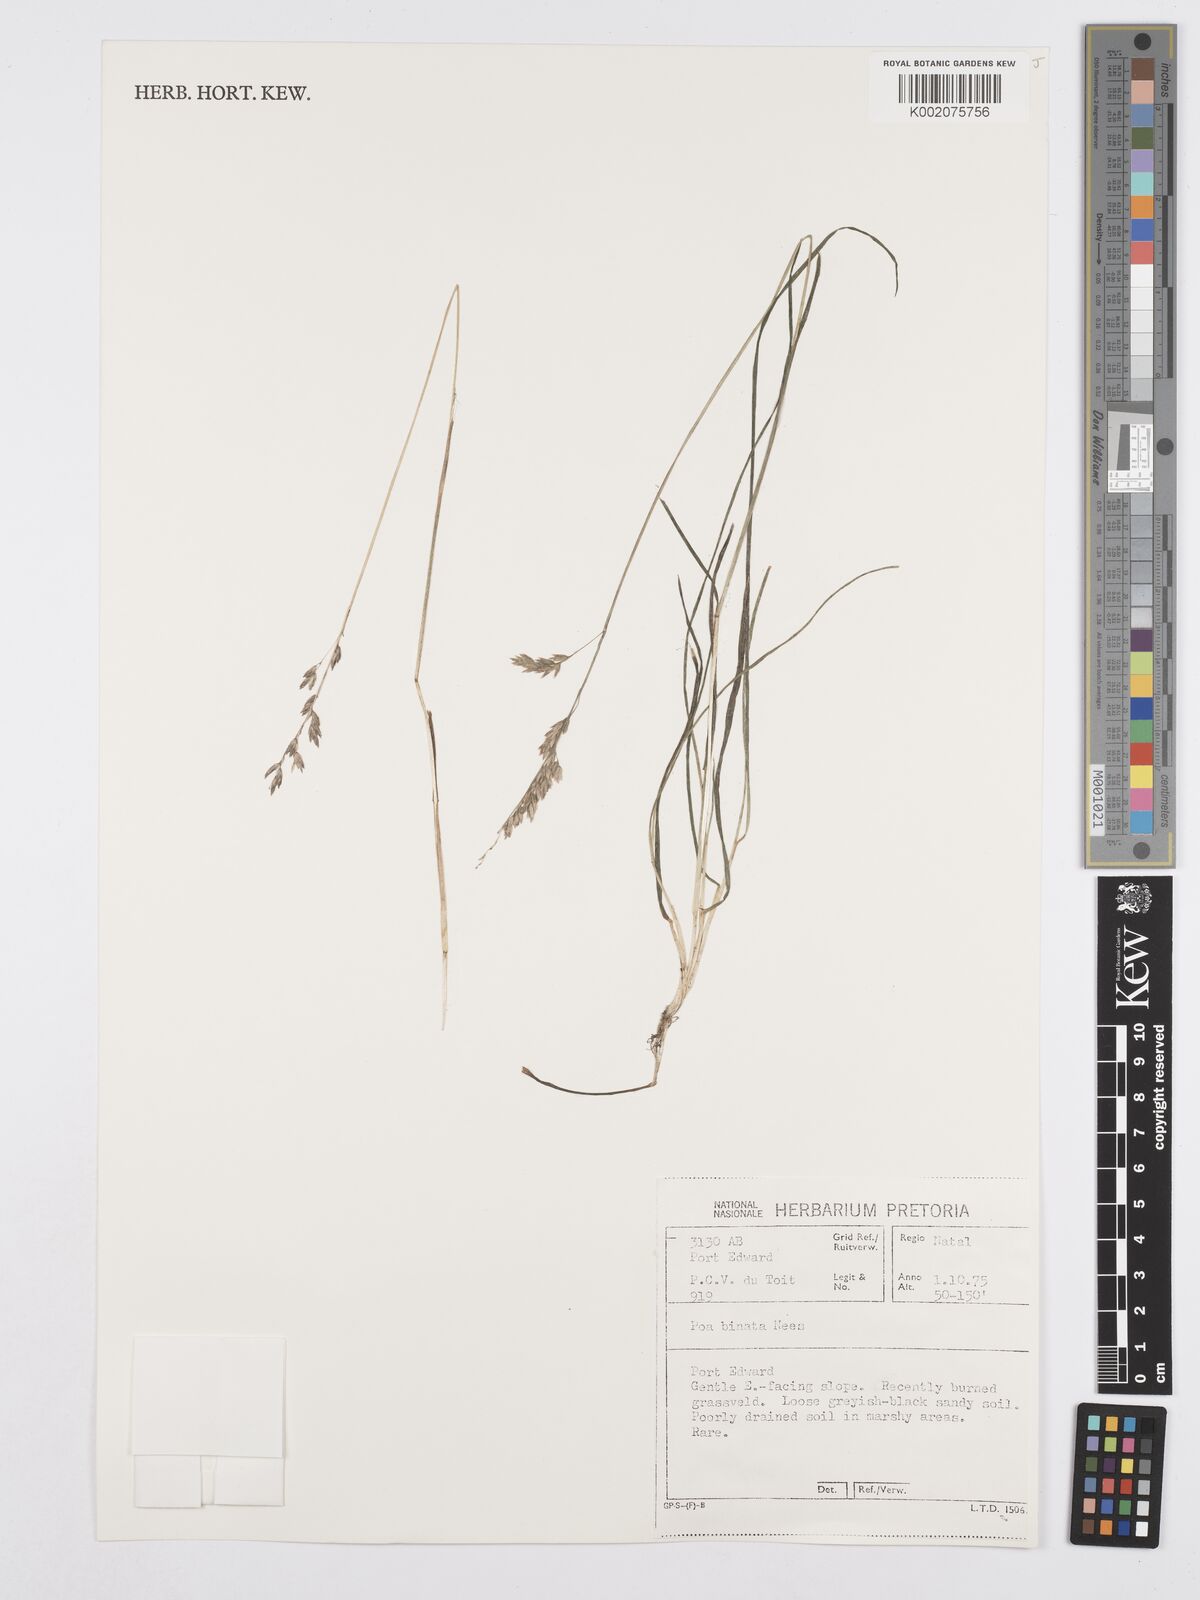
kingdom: Plantae
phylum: Tracheophyta
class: Liliopsida
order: Poales
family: Poaceae
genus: Poa
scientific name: Poa binata
